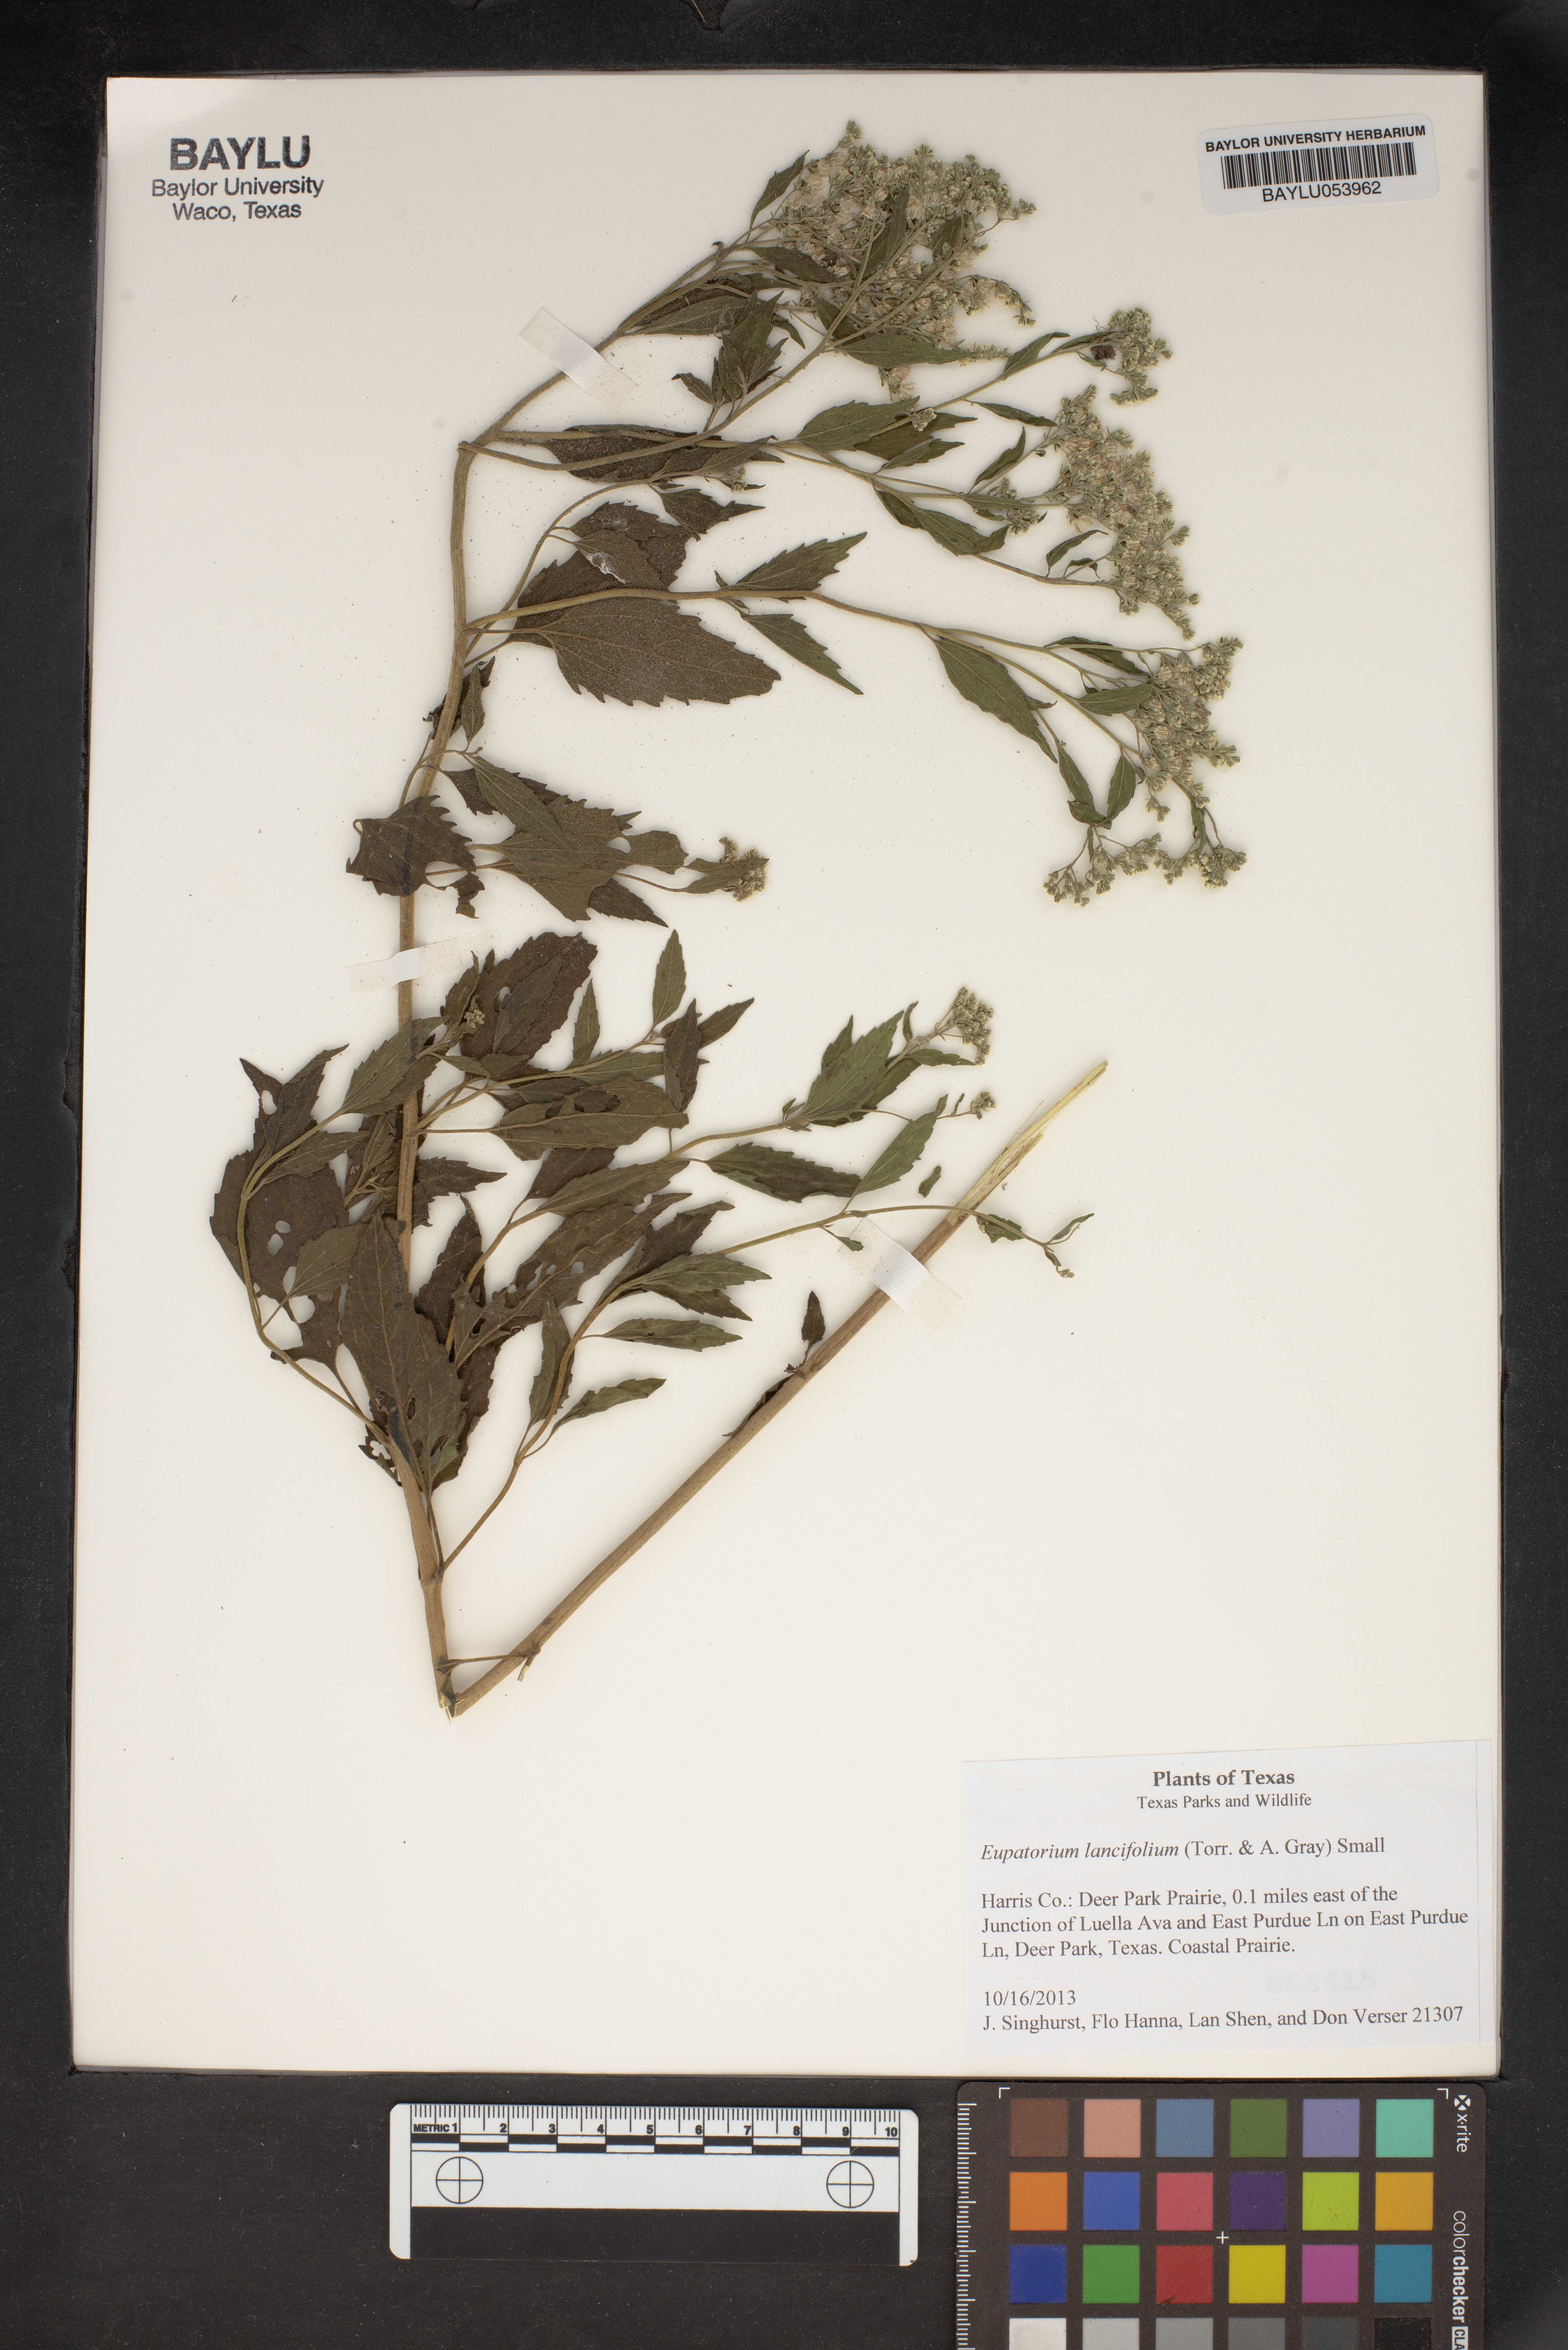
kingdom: Plantae
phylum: Tracheophyta
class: Magnoliopsida
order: Asterales
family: Asteraceae
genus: Eupatorium
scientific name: Eupatorium lancifolium
